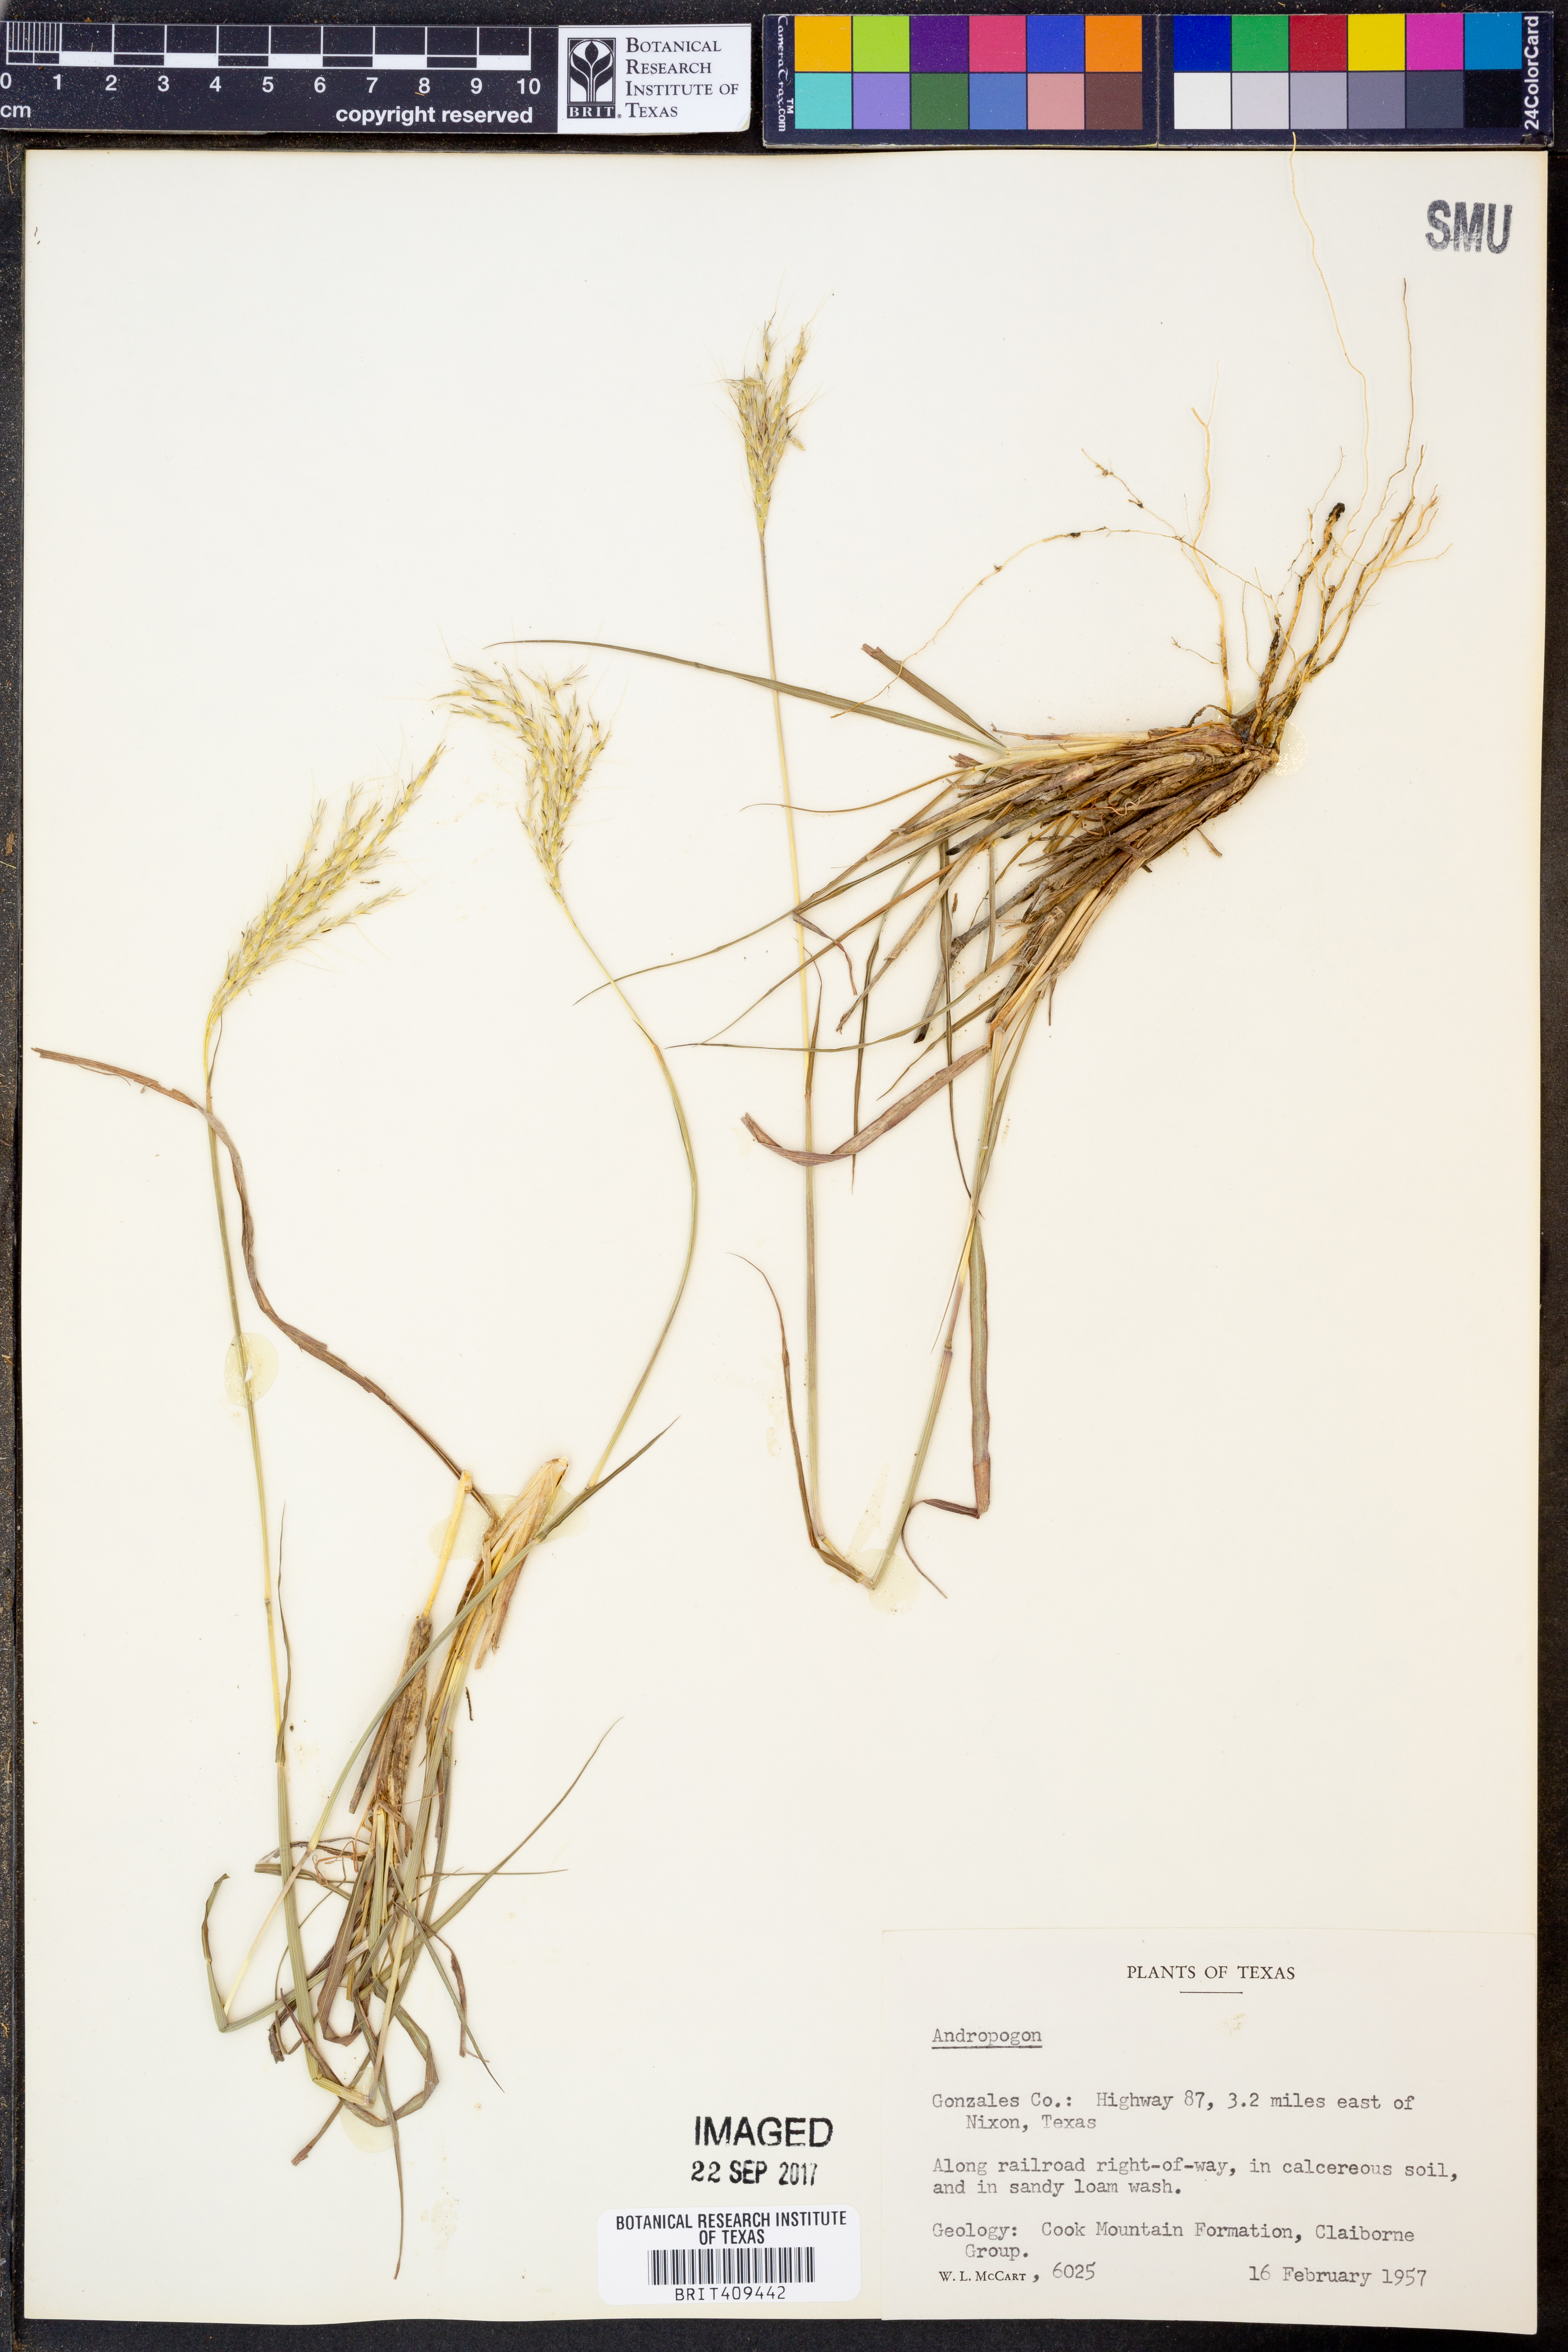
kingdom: Plantae
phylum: Tracheophyta
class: Liliopsida
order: Poales
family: Poaceae
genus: Andropogon
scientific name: Andropogon
